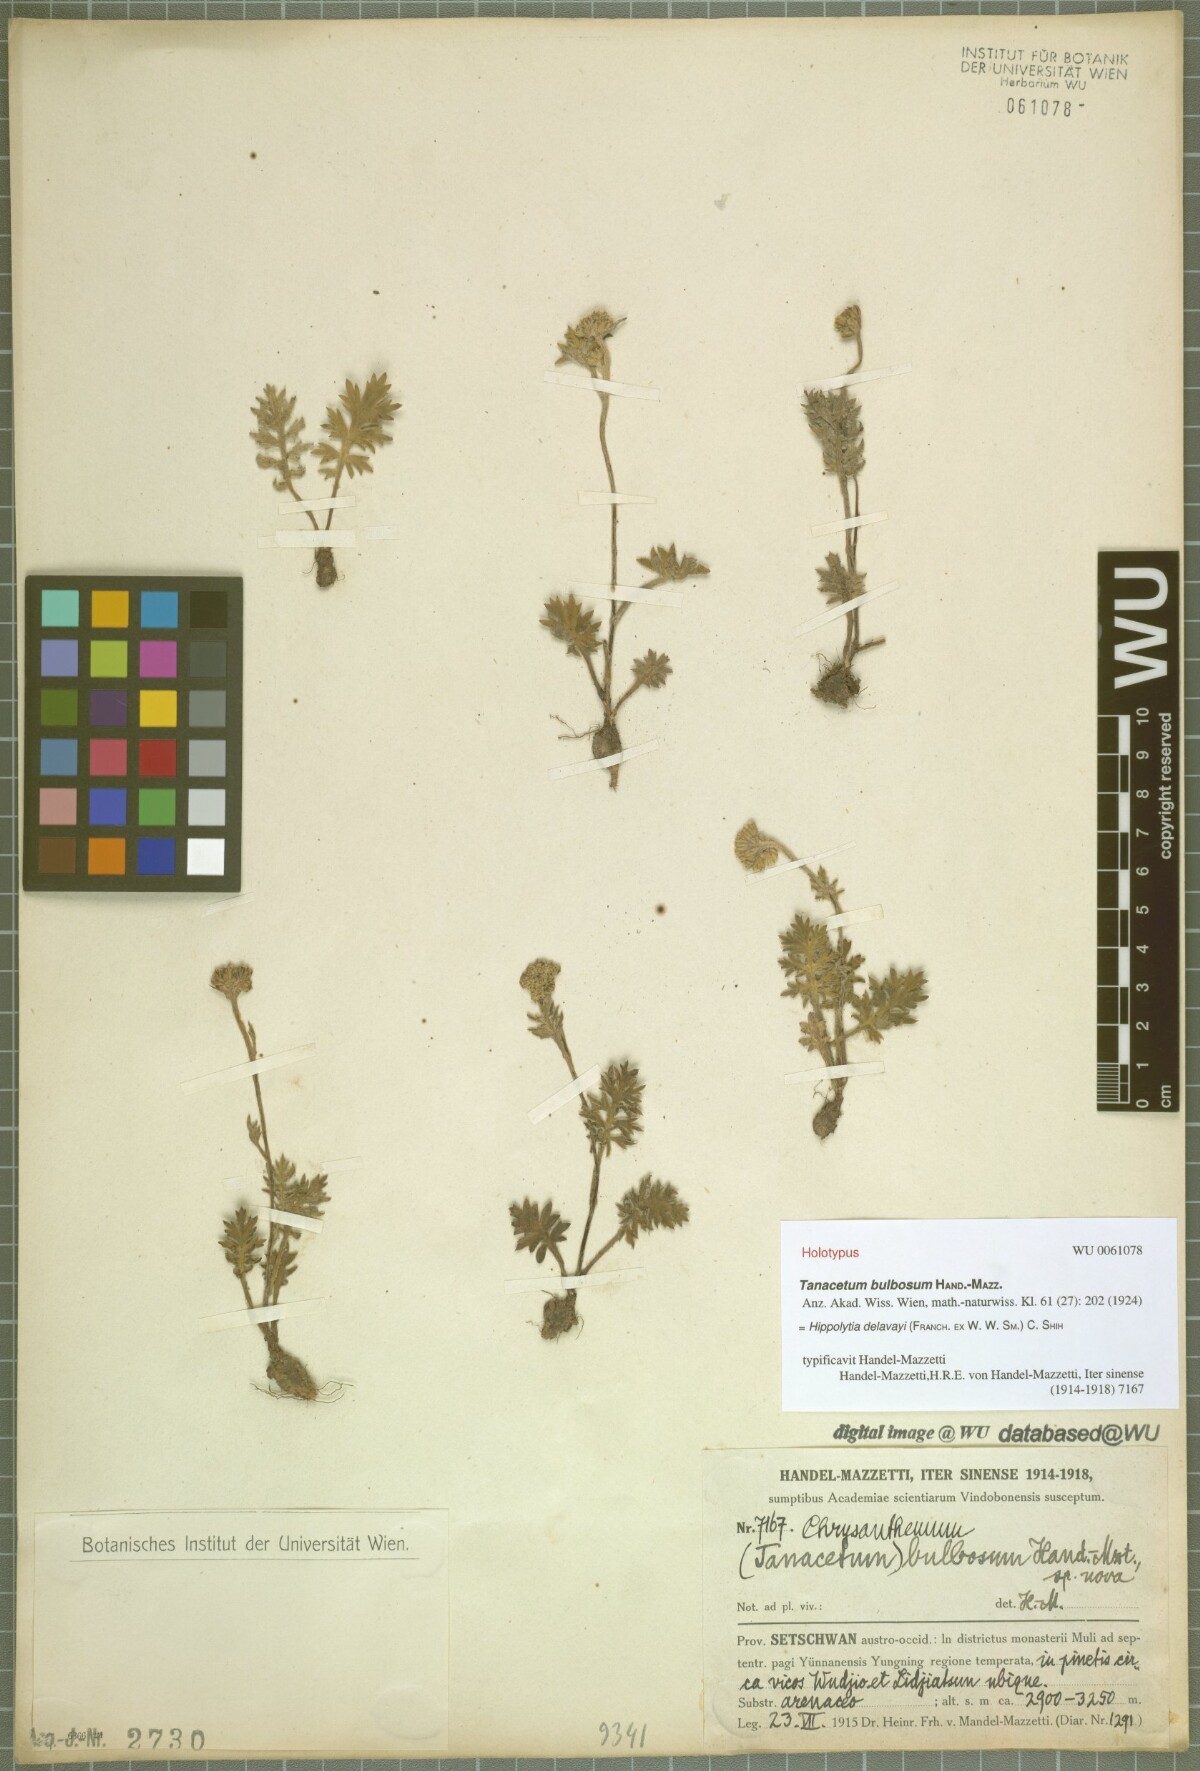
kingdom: Plantae
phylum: Tracheophyta
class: Magnoliopsida
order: Asterales
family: Asteraceae
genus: Hippolytia
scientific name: Hippolytia delavayi
